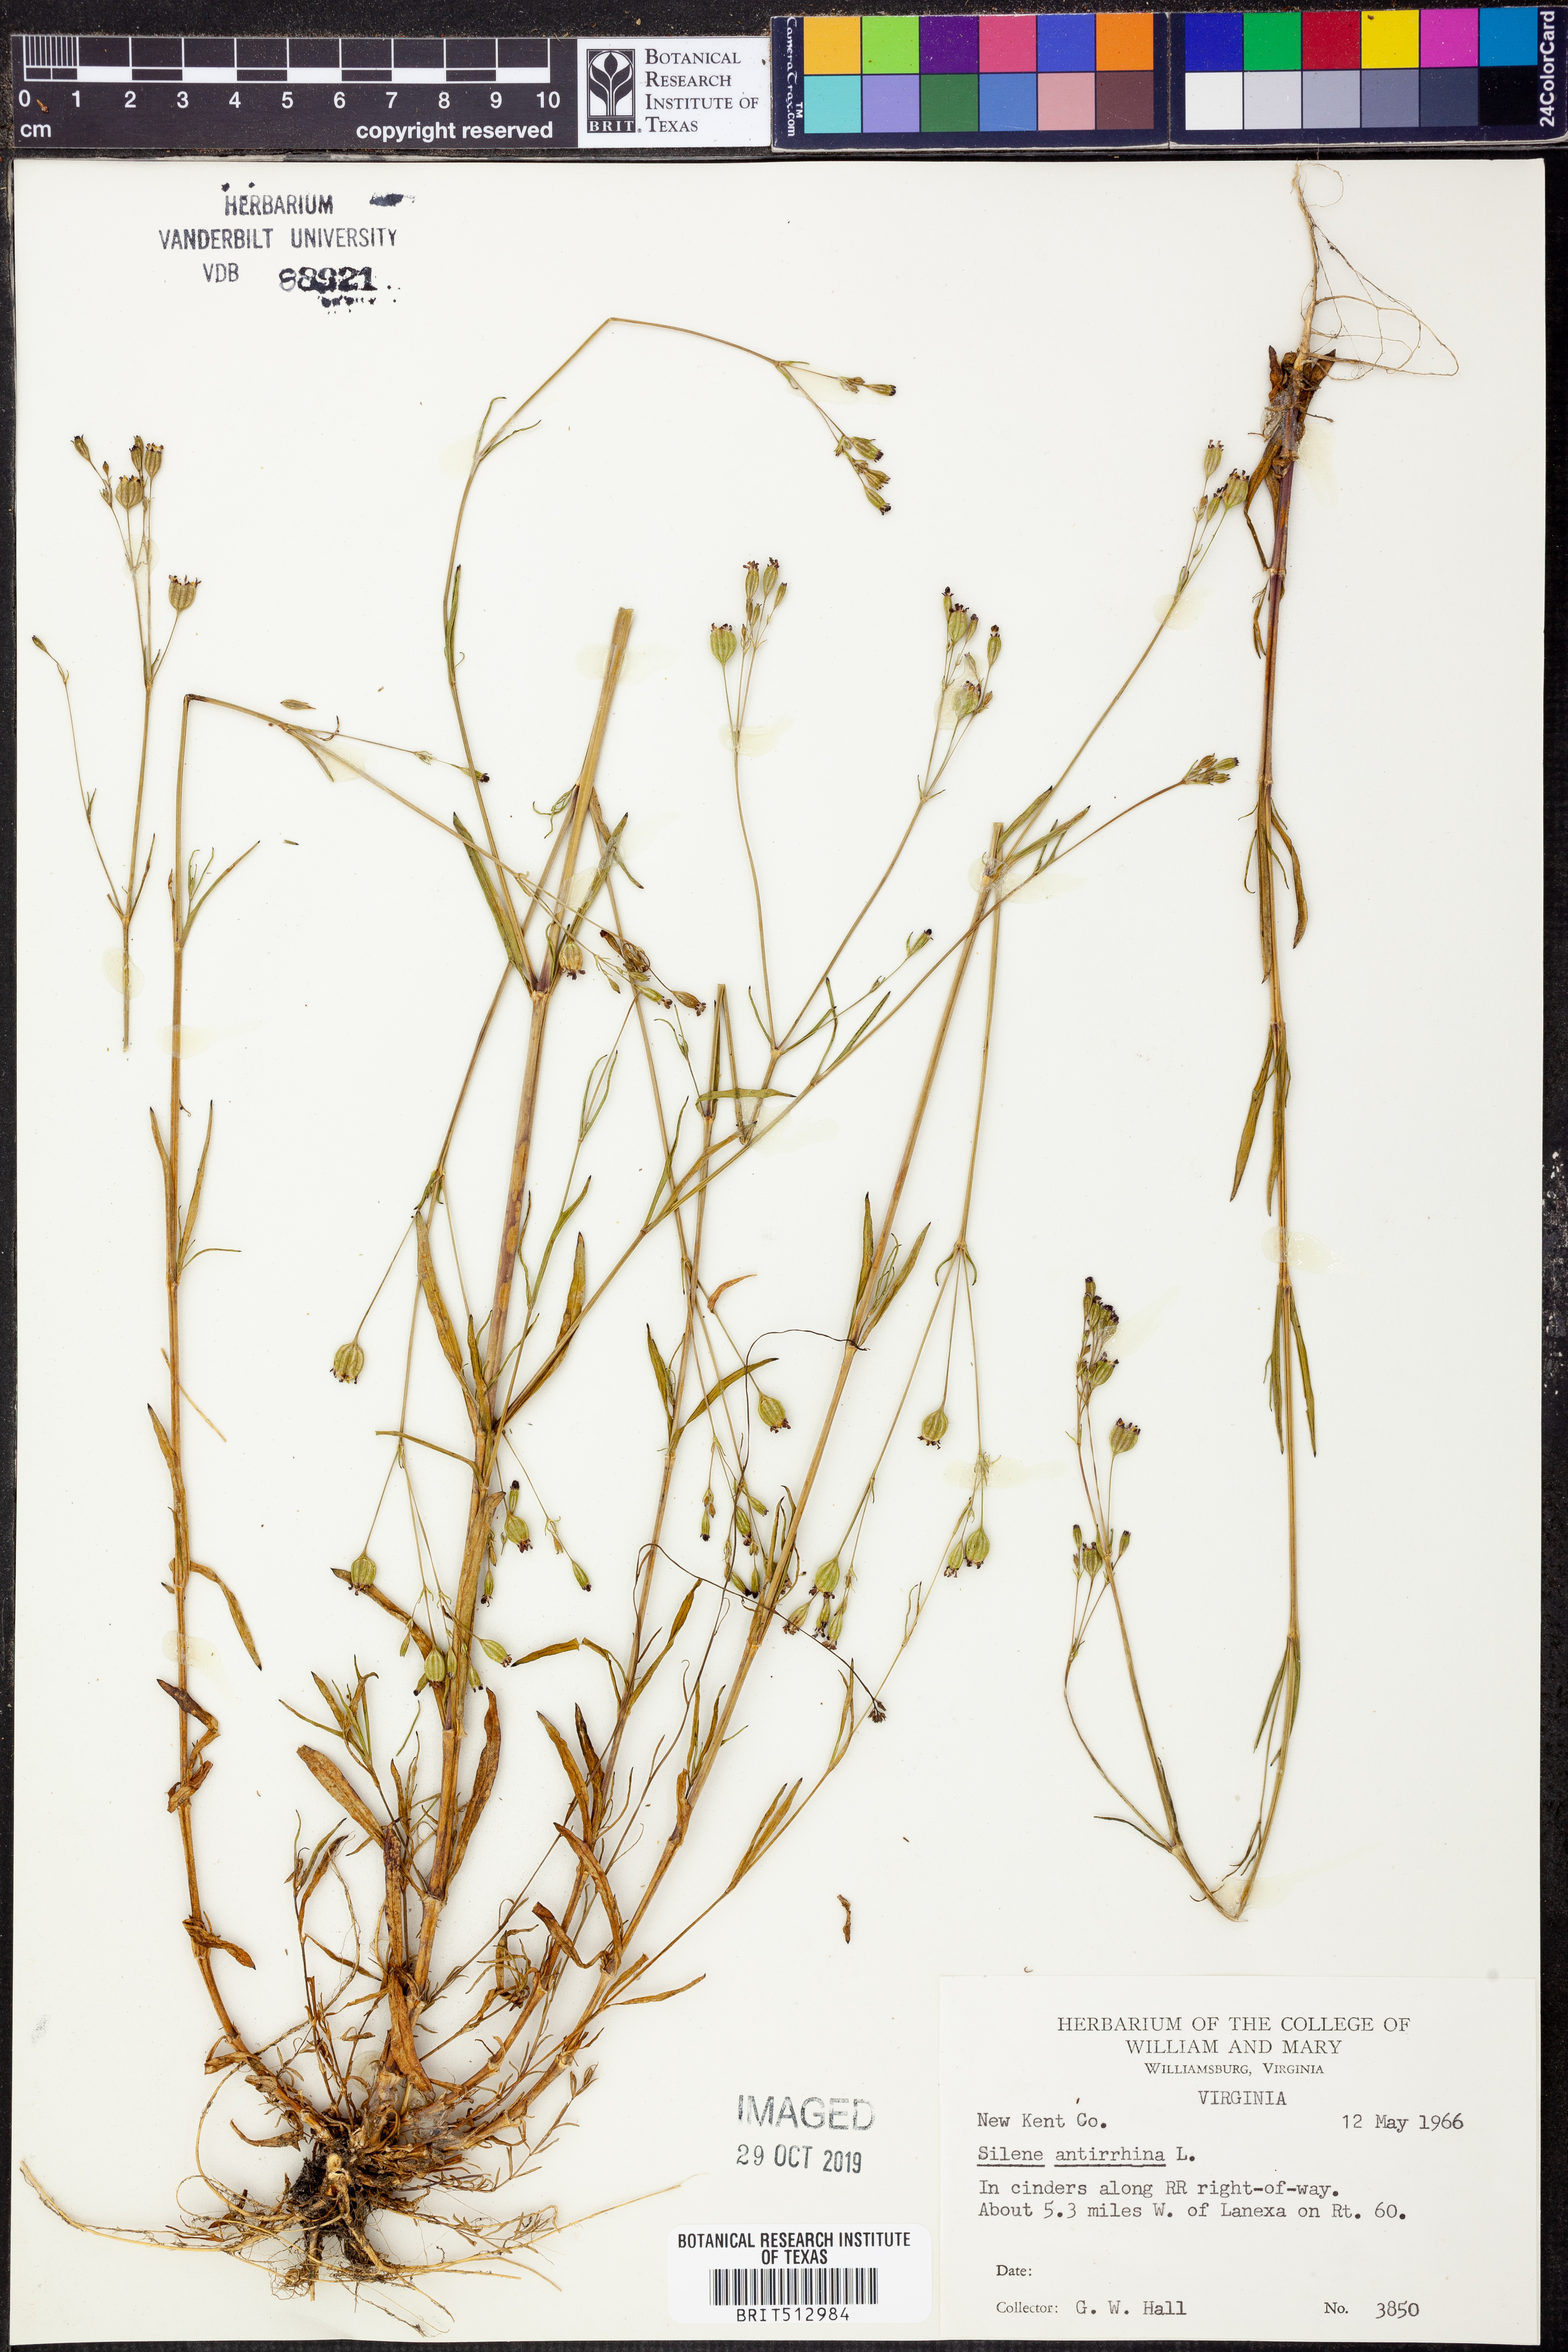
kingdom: Plantae
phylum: Tracheophyta
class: Magnoliopsida
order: Caryophyllales
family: Caryophyllaceae
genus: Silene
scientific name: Silene antirrhina
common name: Sleepy catchfly
